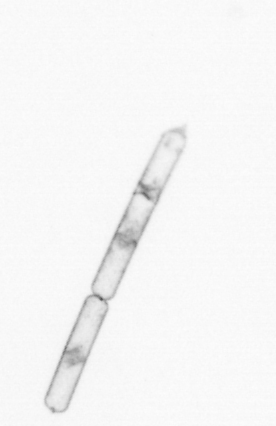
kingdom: Chromista
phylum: Ochrophyta
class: Bacillariophyceae
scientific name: Bacillariophyceae
